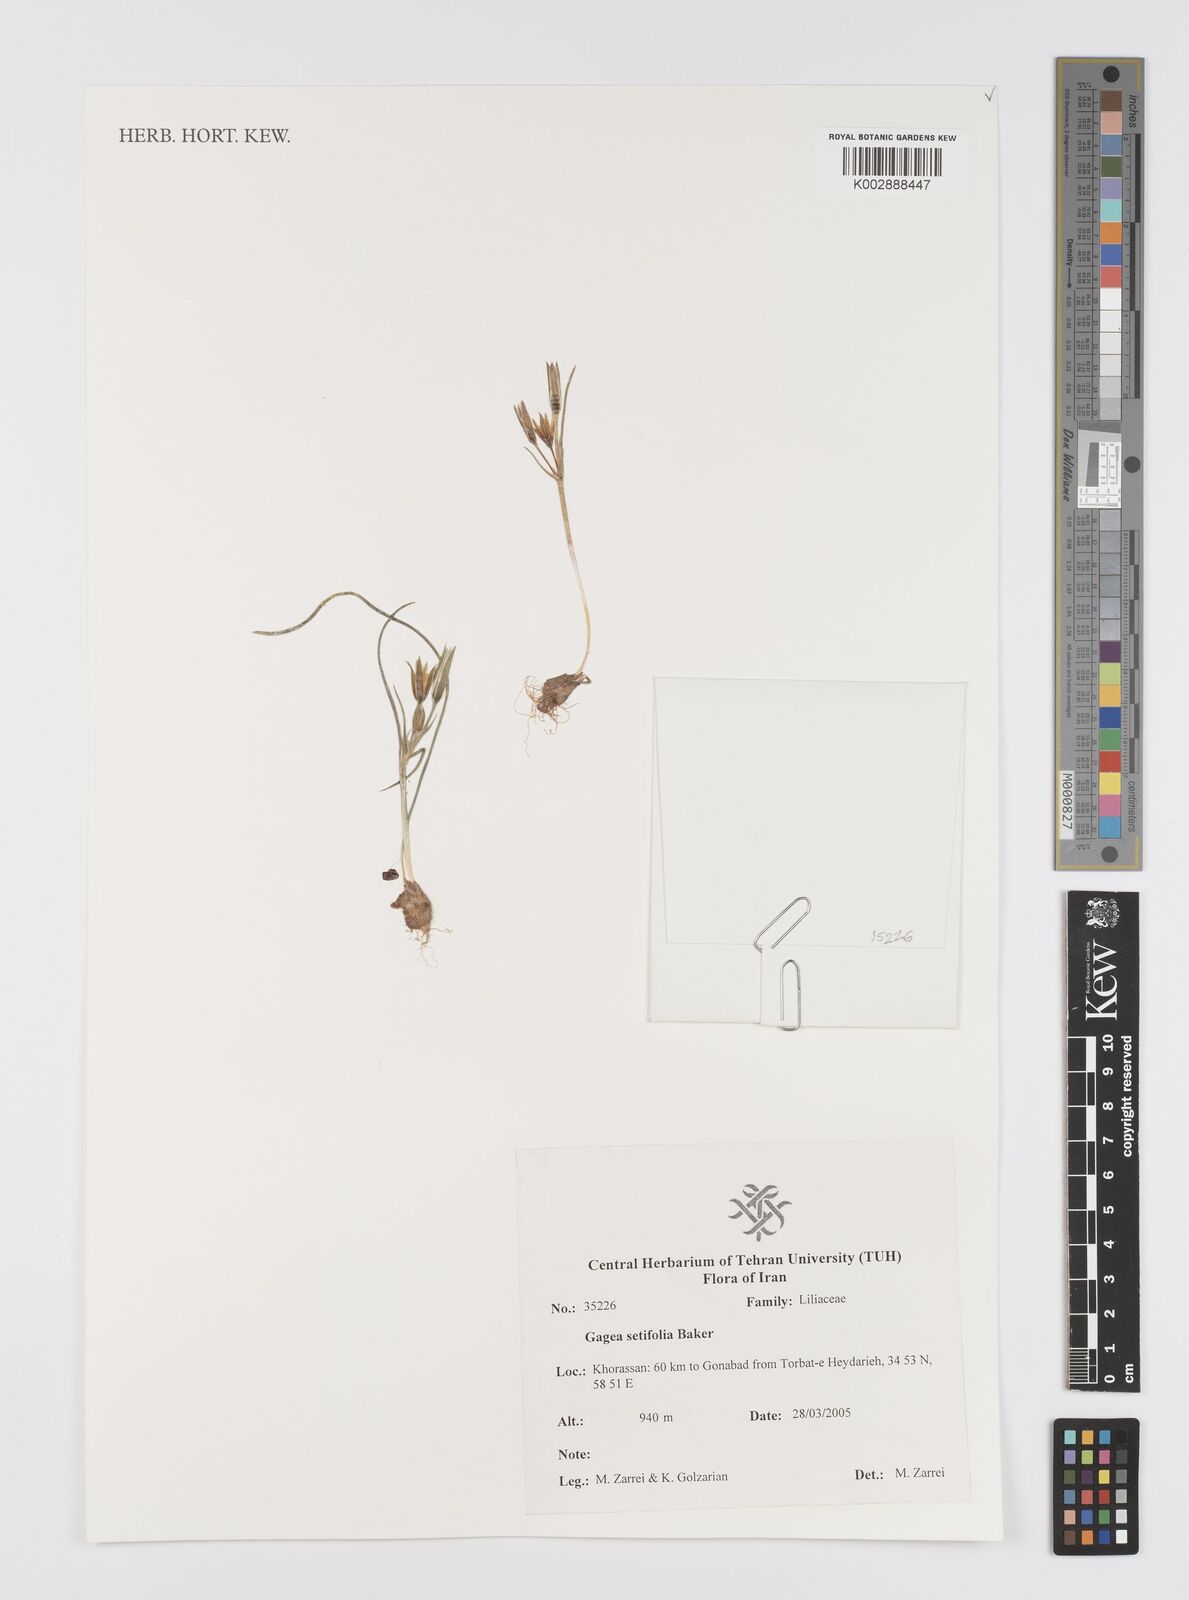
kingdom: Plantae
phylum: Tracheophyta
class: Liliopsida
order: Liliales
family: Liliaceae
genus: Gagea
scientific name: Gagea setifolia
